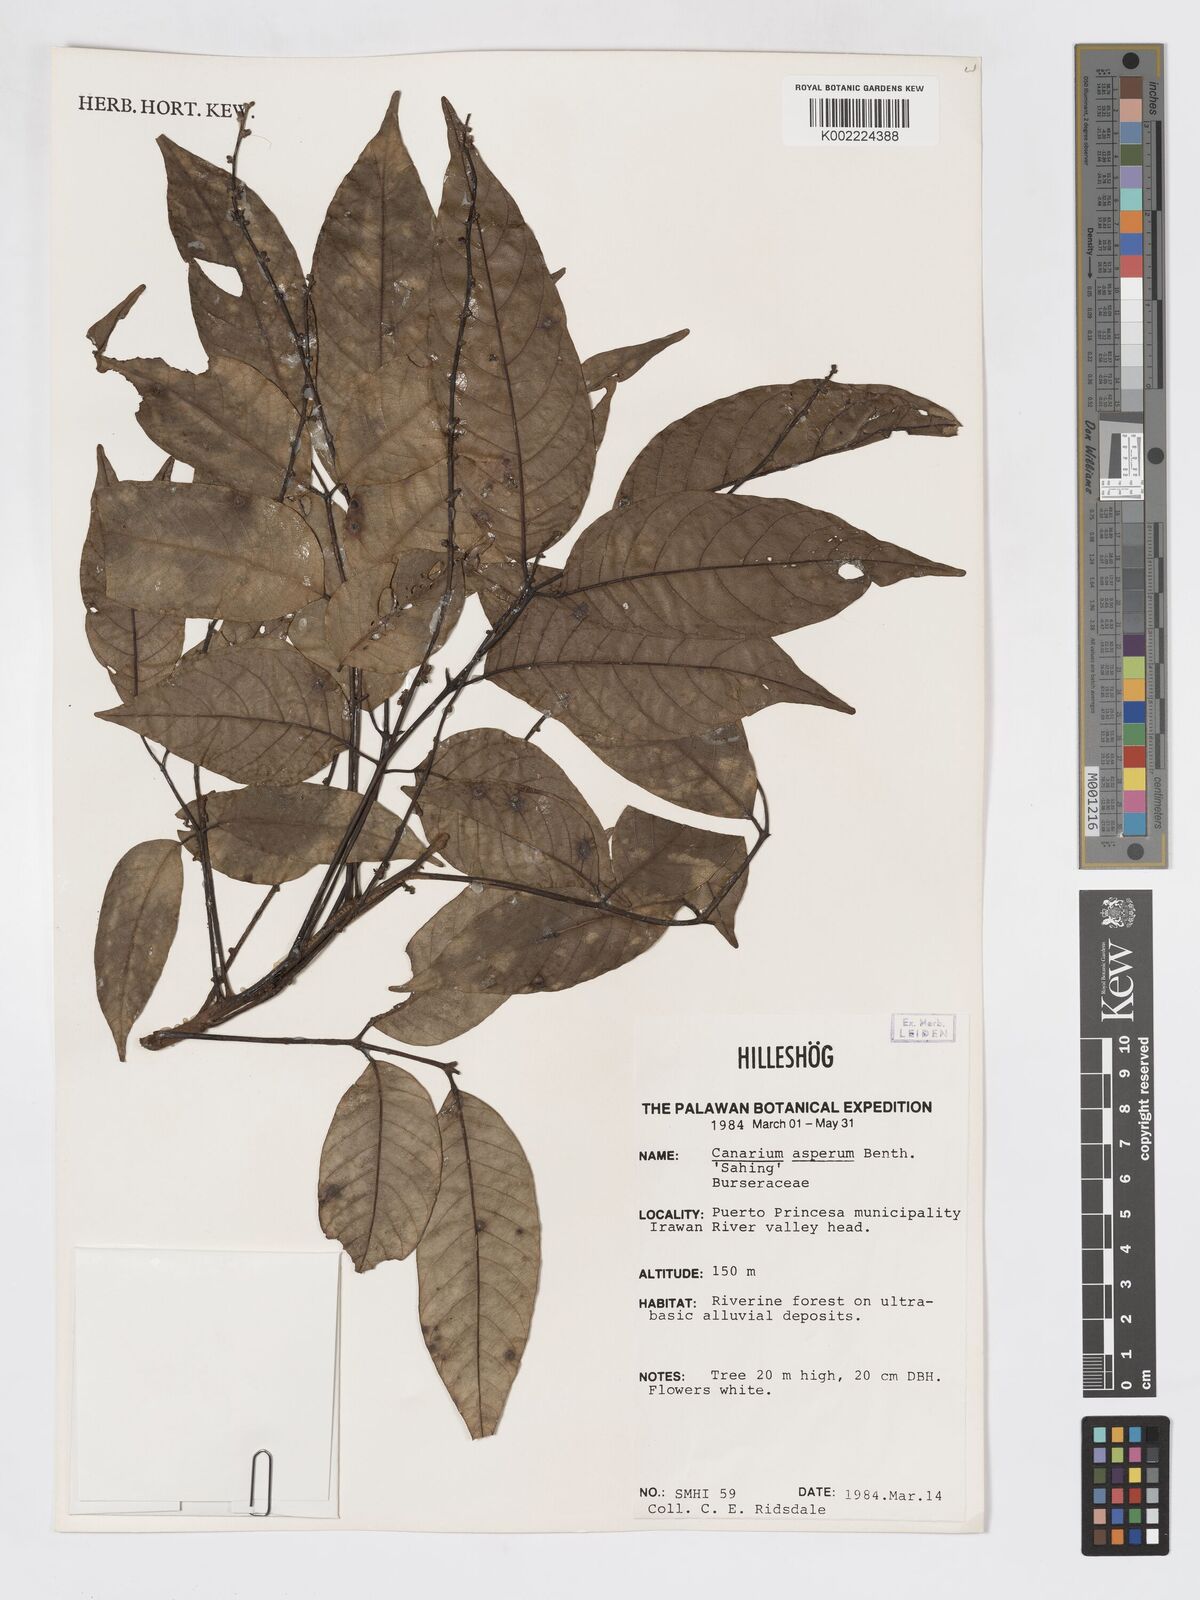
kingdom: Plantae
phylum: Tracheophyta
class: Magnoliopsida
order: Sapindales
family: Burseraceae
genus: Canarium
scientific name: Canarium asperum
